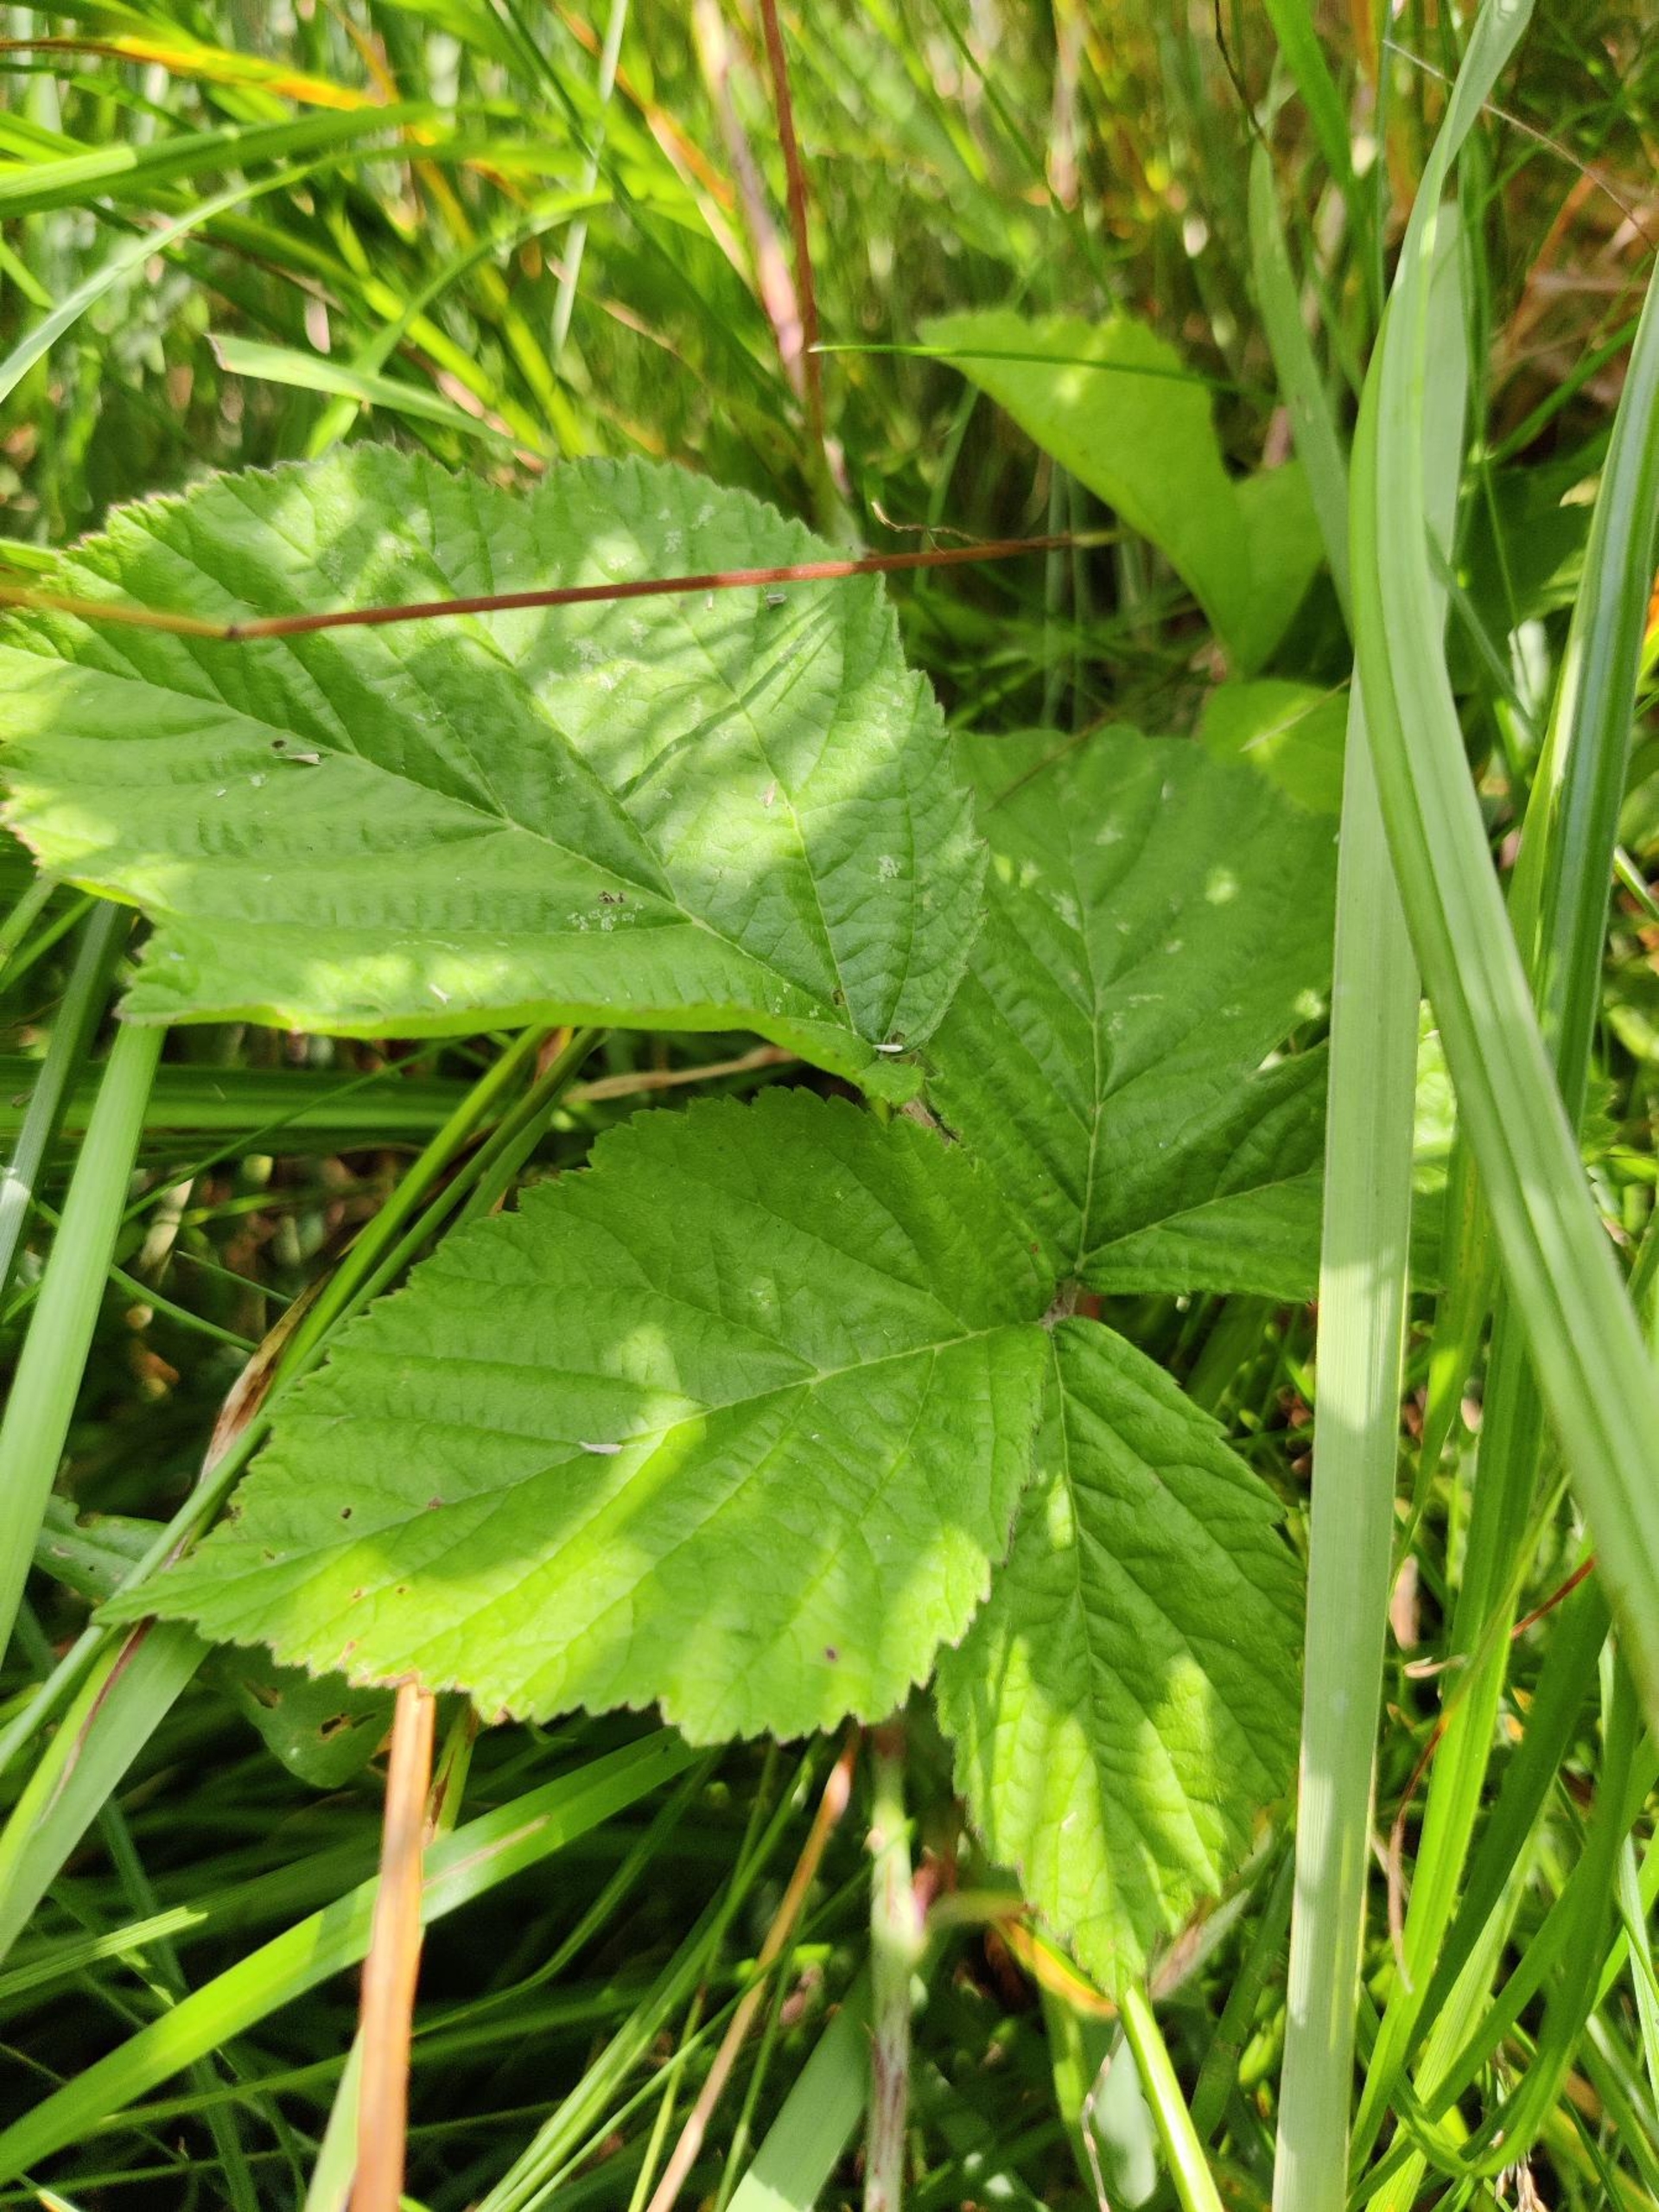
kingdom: Plantae
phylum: Tracheophyta
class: Magnoliopsida
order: Rosales
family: Rosaceae
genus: Rubus
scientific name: Rubus caesius
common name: Korbær
